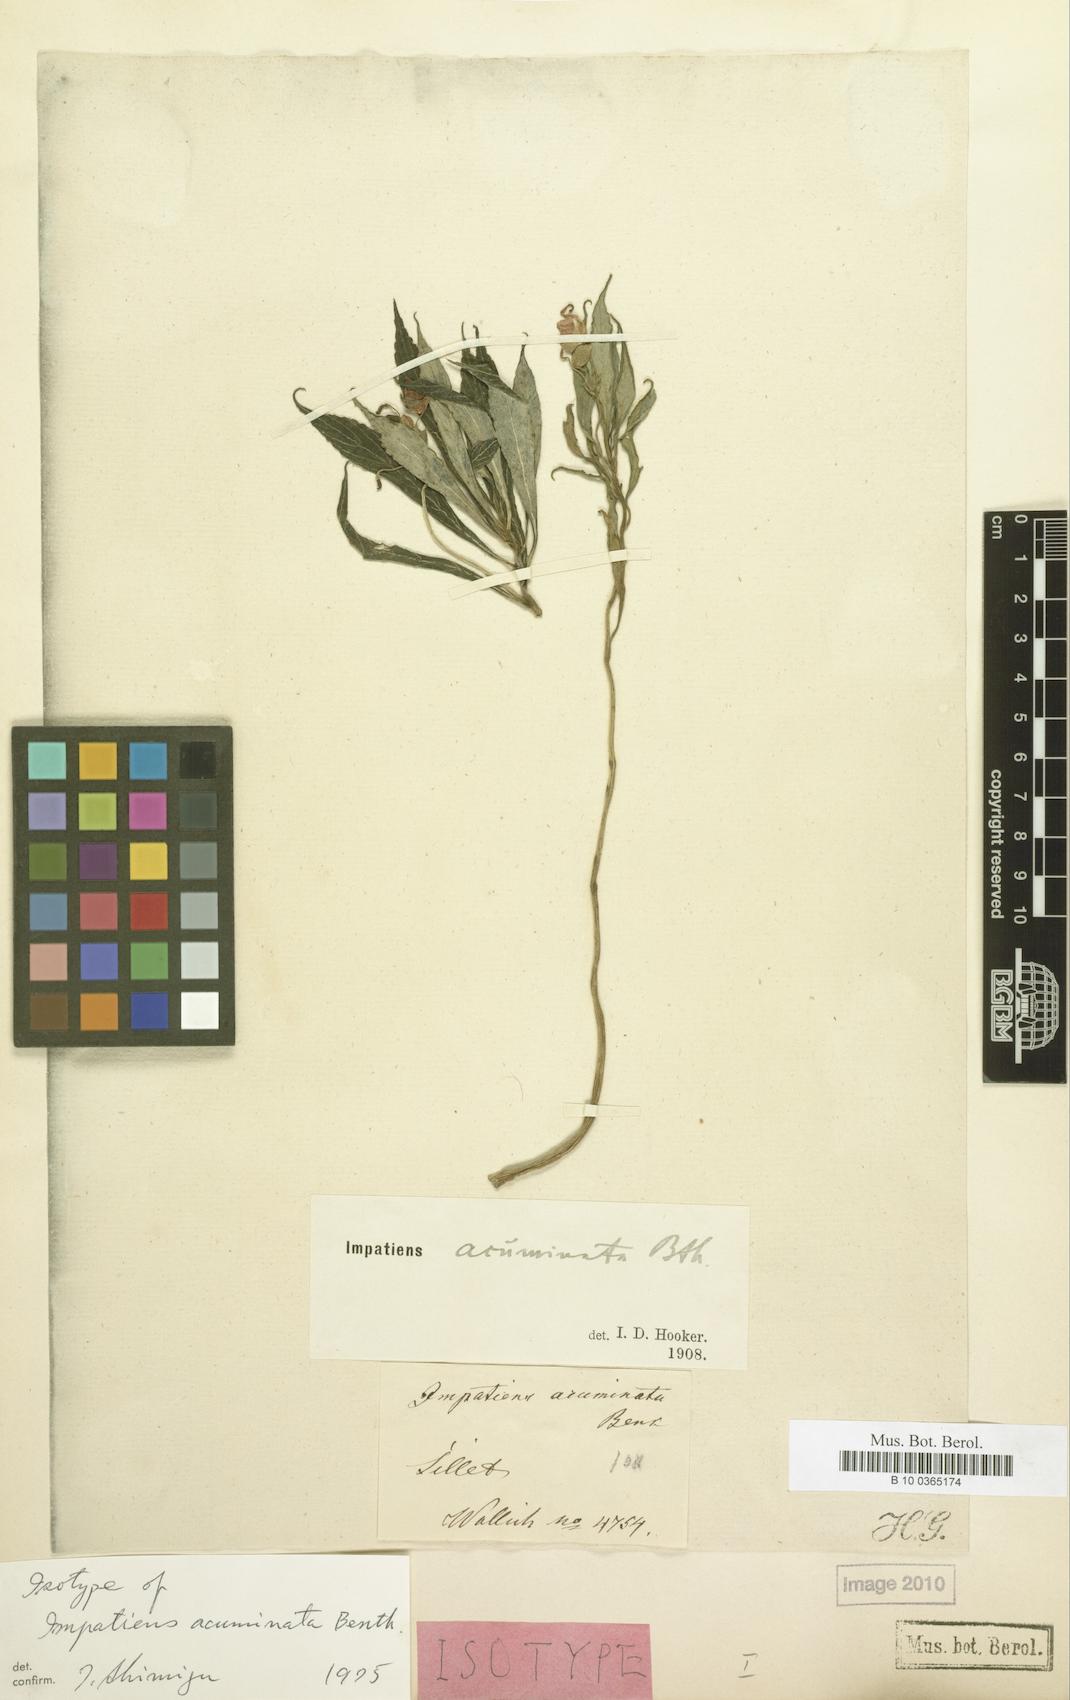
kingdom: Plantae
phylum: Tracheophyta
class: Magnoliopsida
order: Ericales
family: Balsaminaceae
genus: Impatiens
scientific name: Impatiens acuminata
